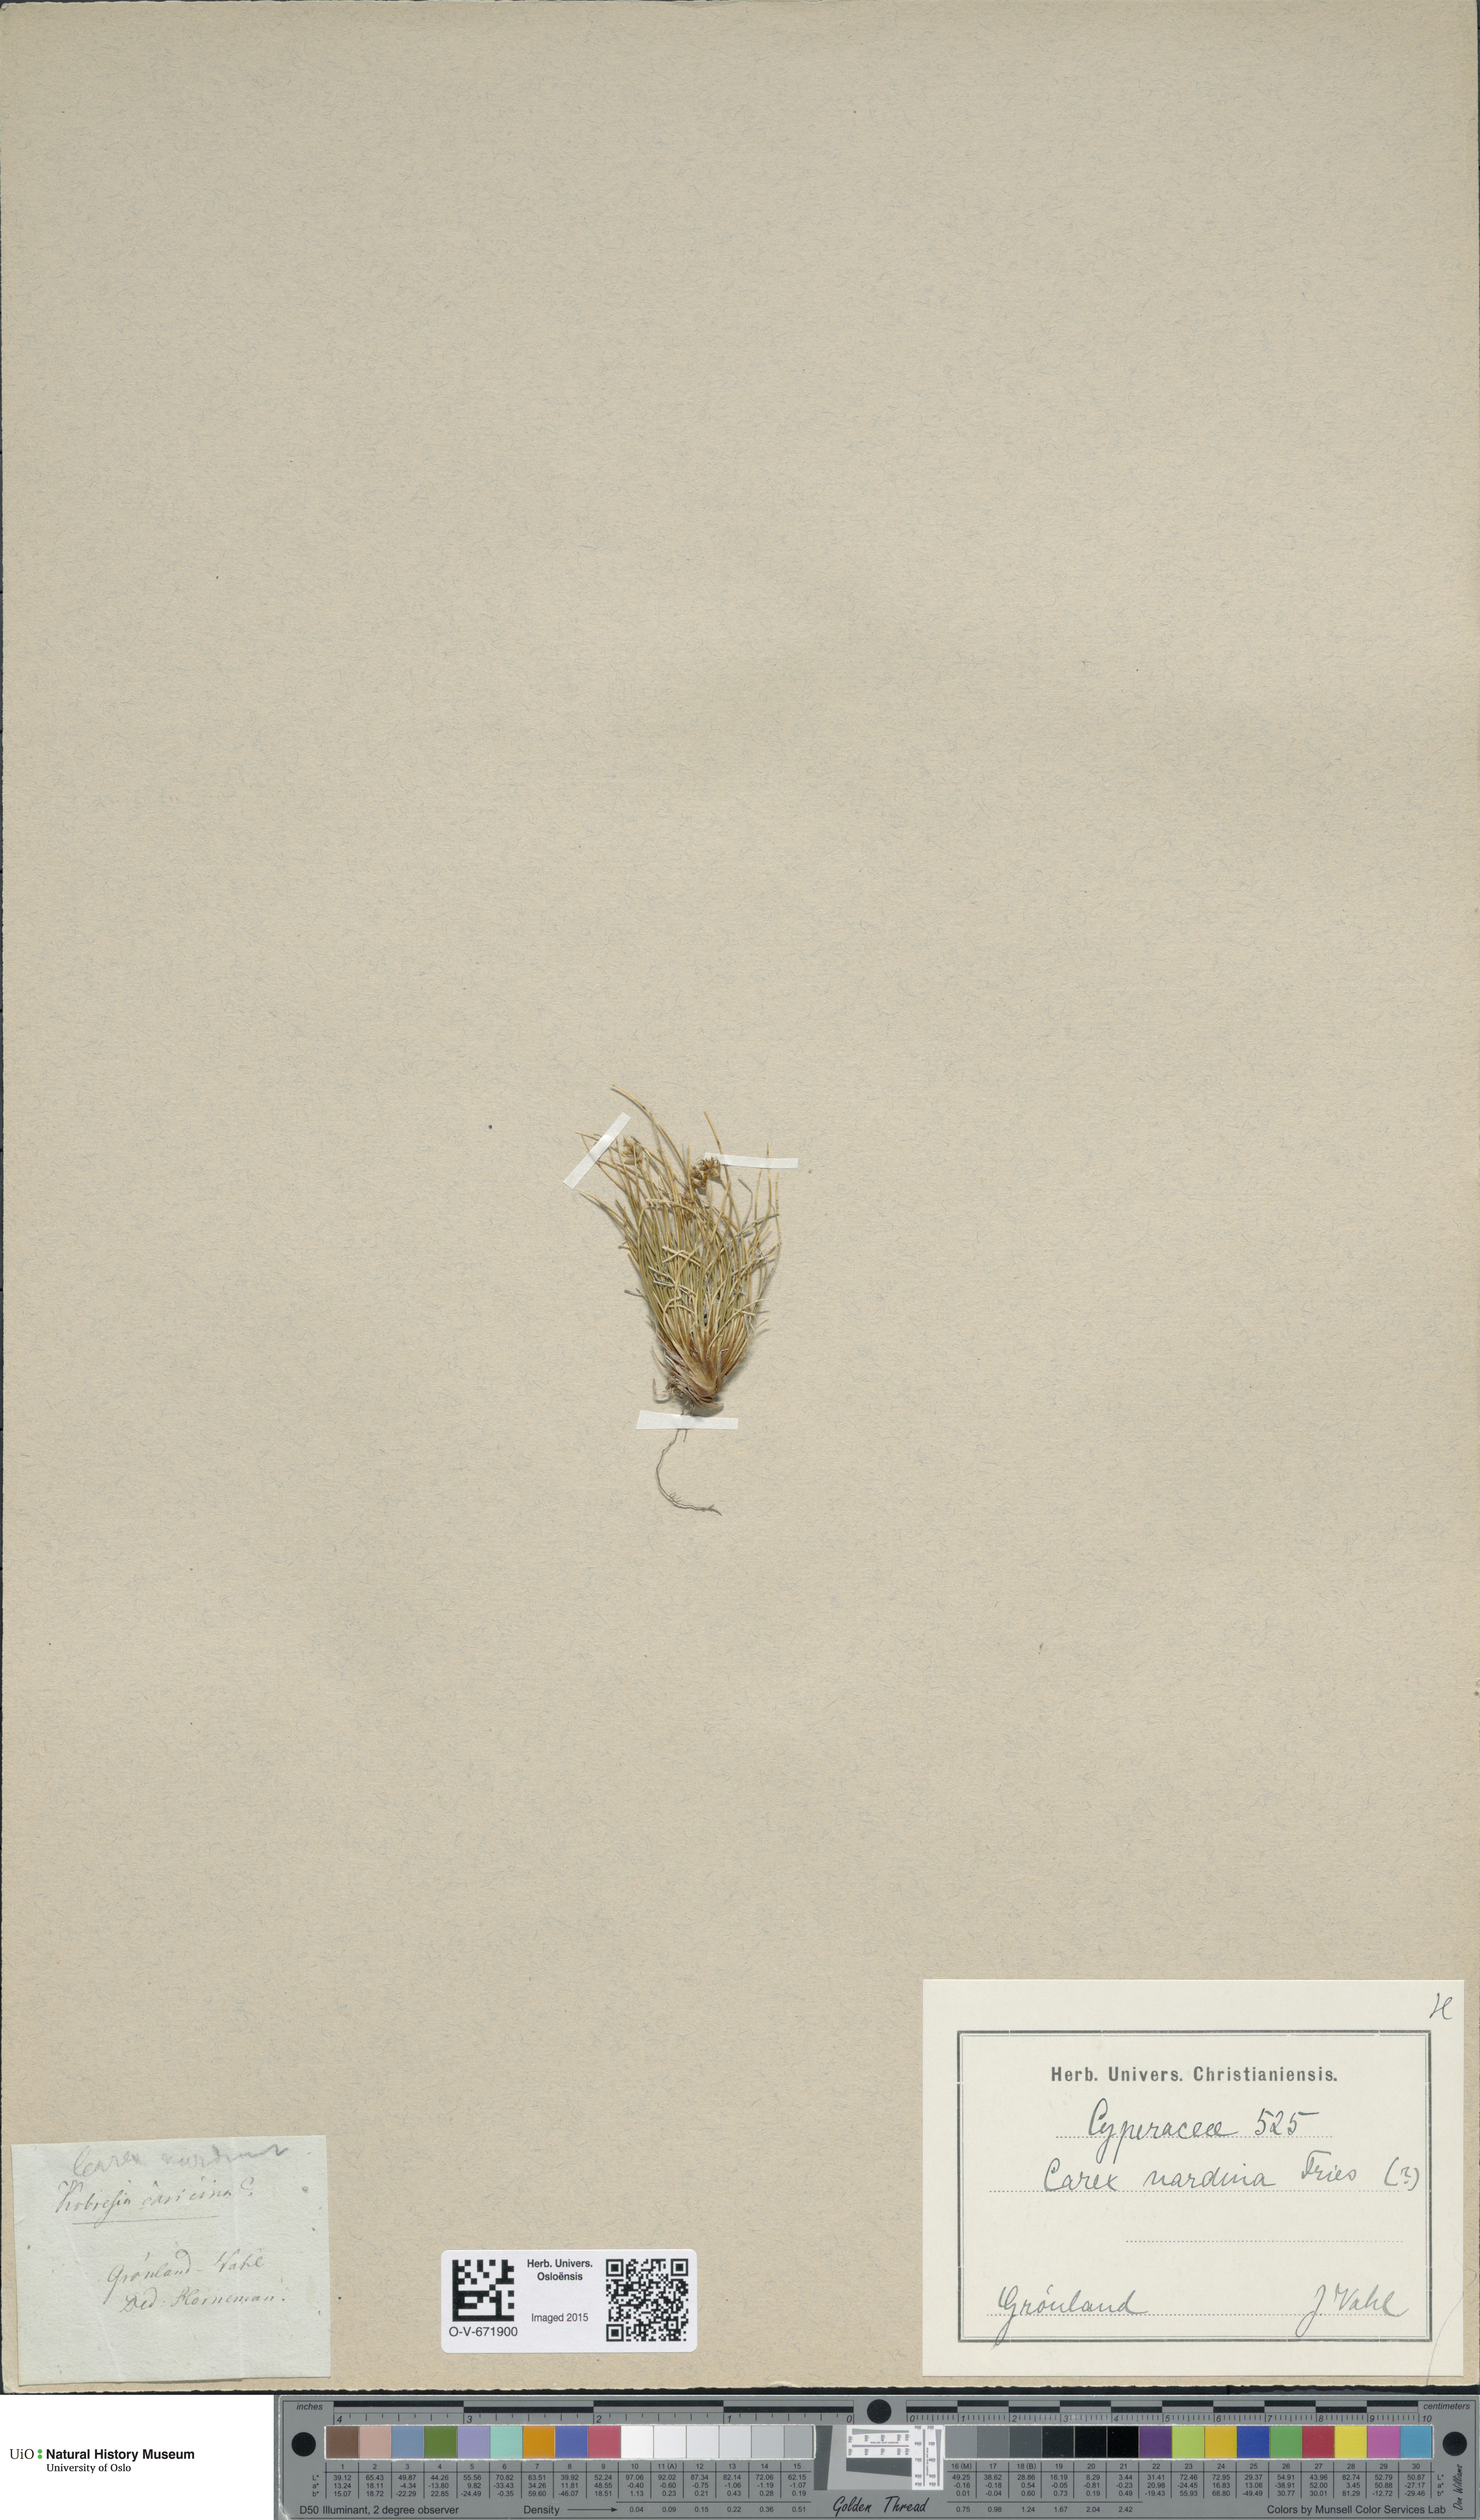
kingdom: Plantae
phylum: Tracheophyta
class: Liliopsida
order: Poales
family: Cyperaceae
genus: Carex
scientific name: Carex nardina
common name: Nard sedge
